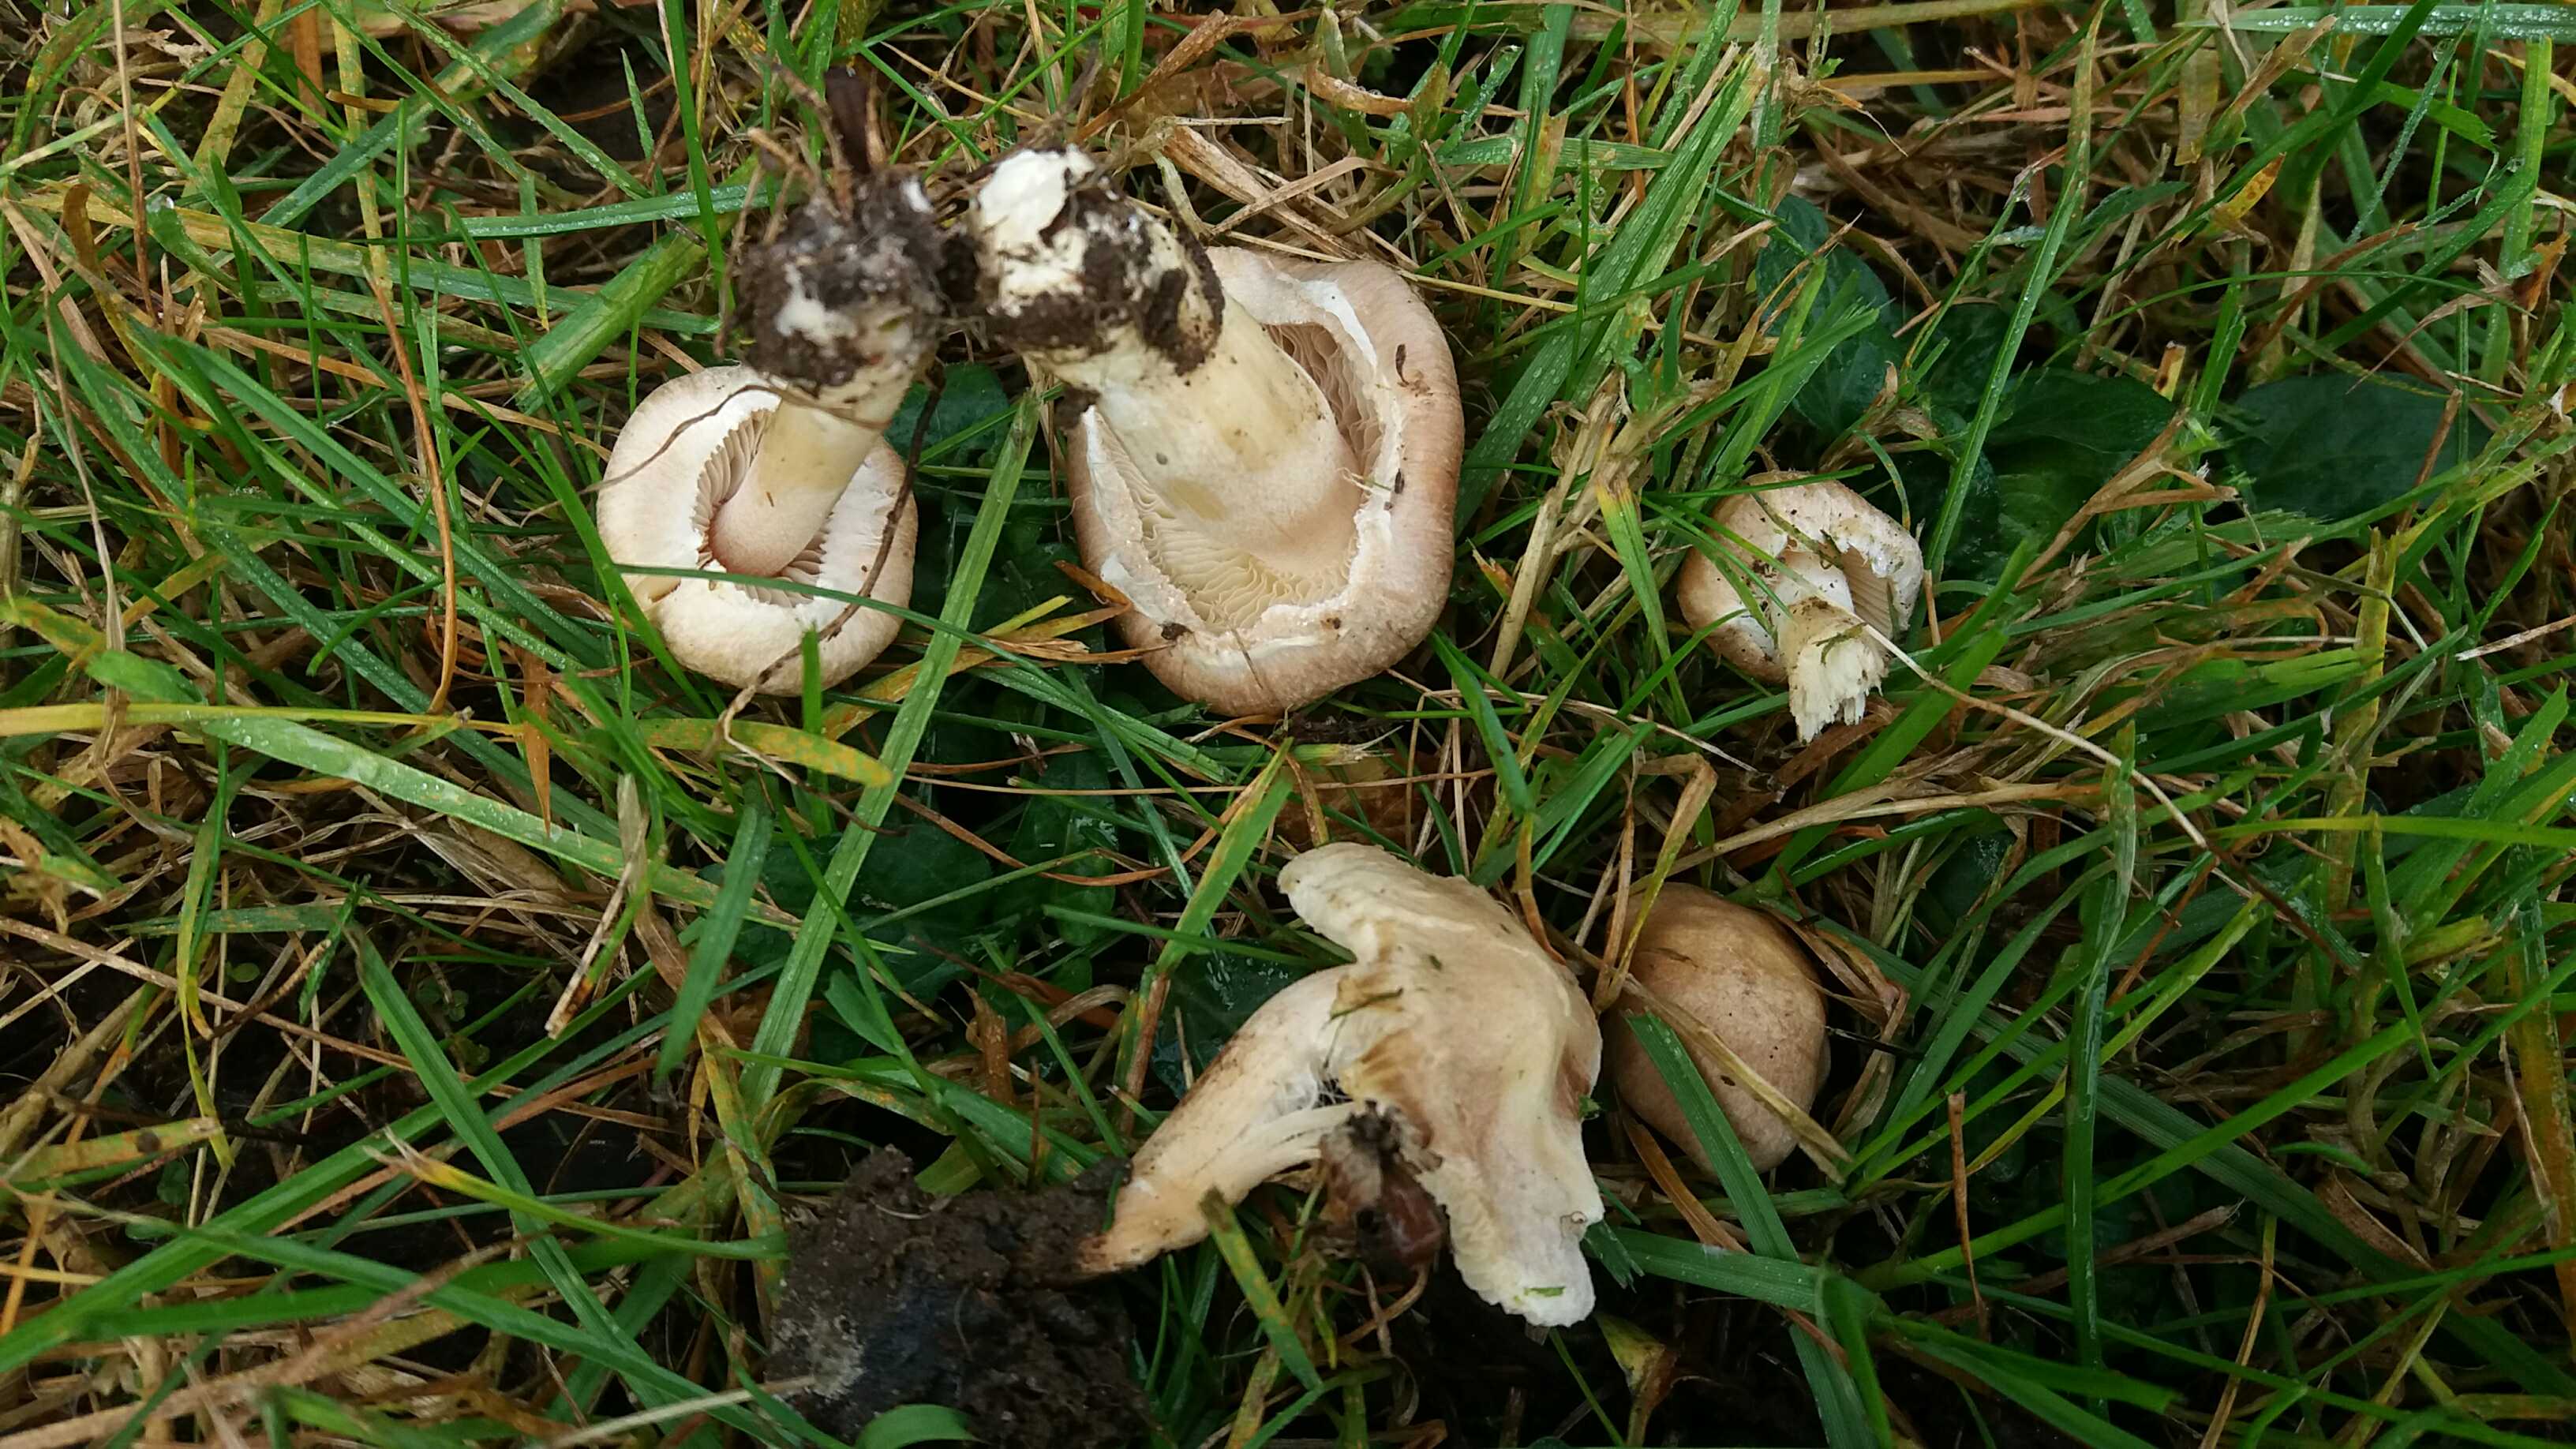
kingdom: Fungi
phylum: Basidiomycota
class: Agaricomycetes
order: Agaricales
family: Entolomataceae
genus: Entoloma
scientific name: Entoloma
